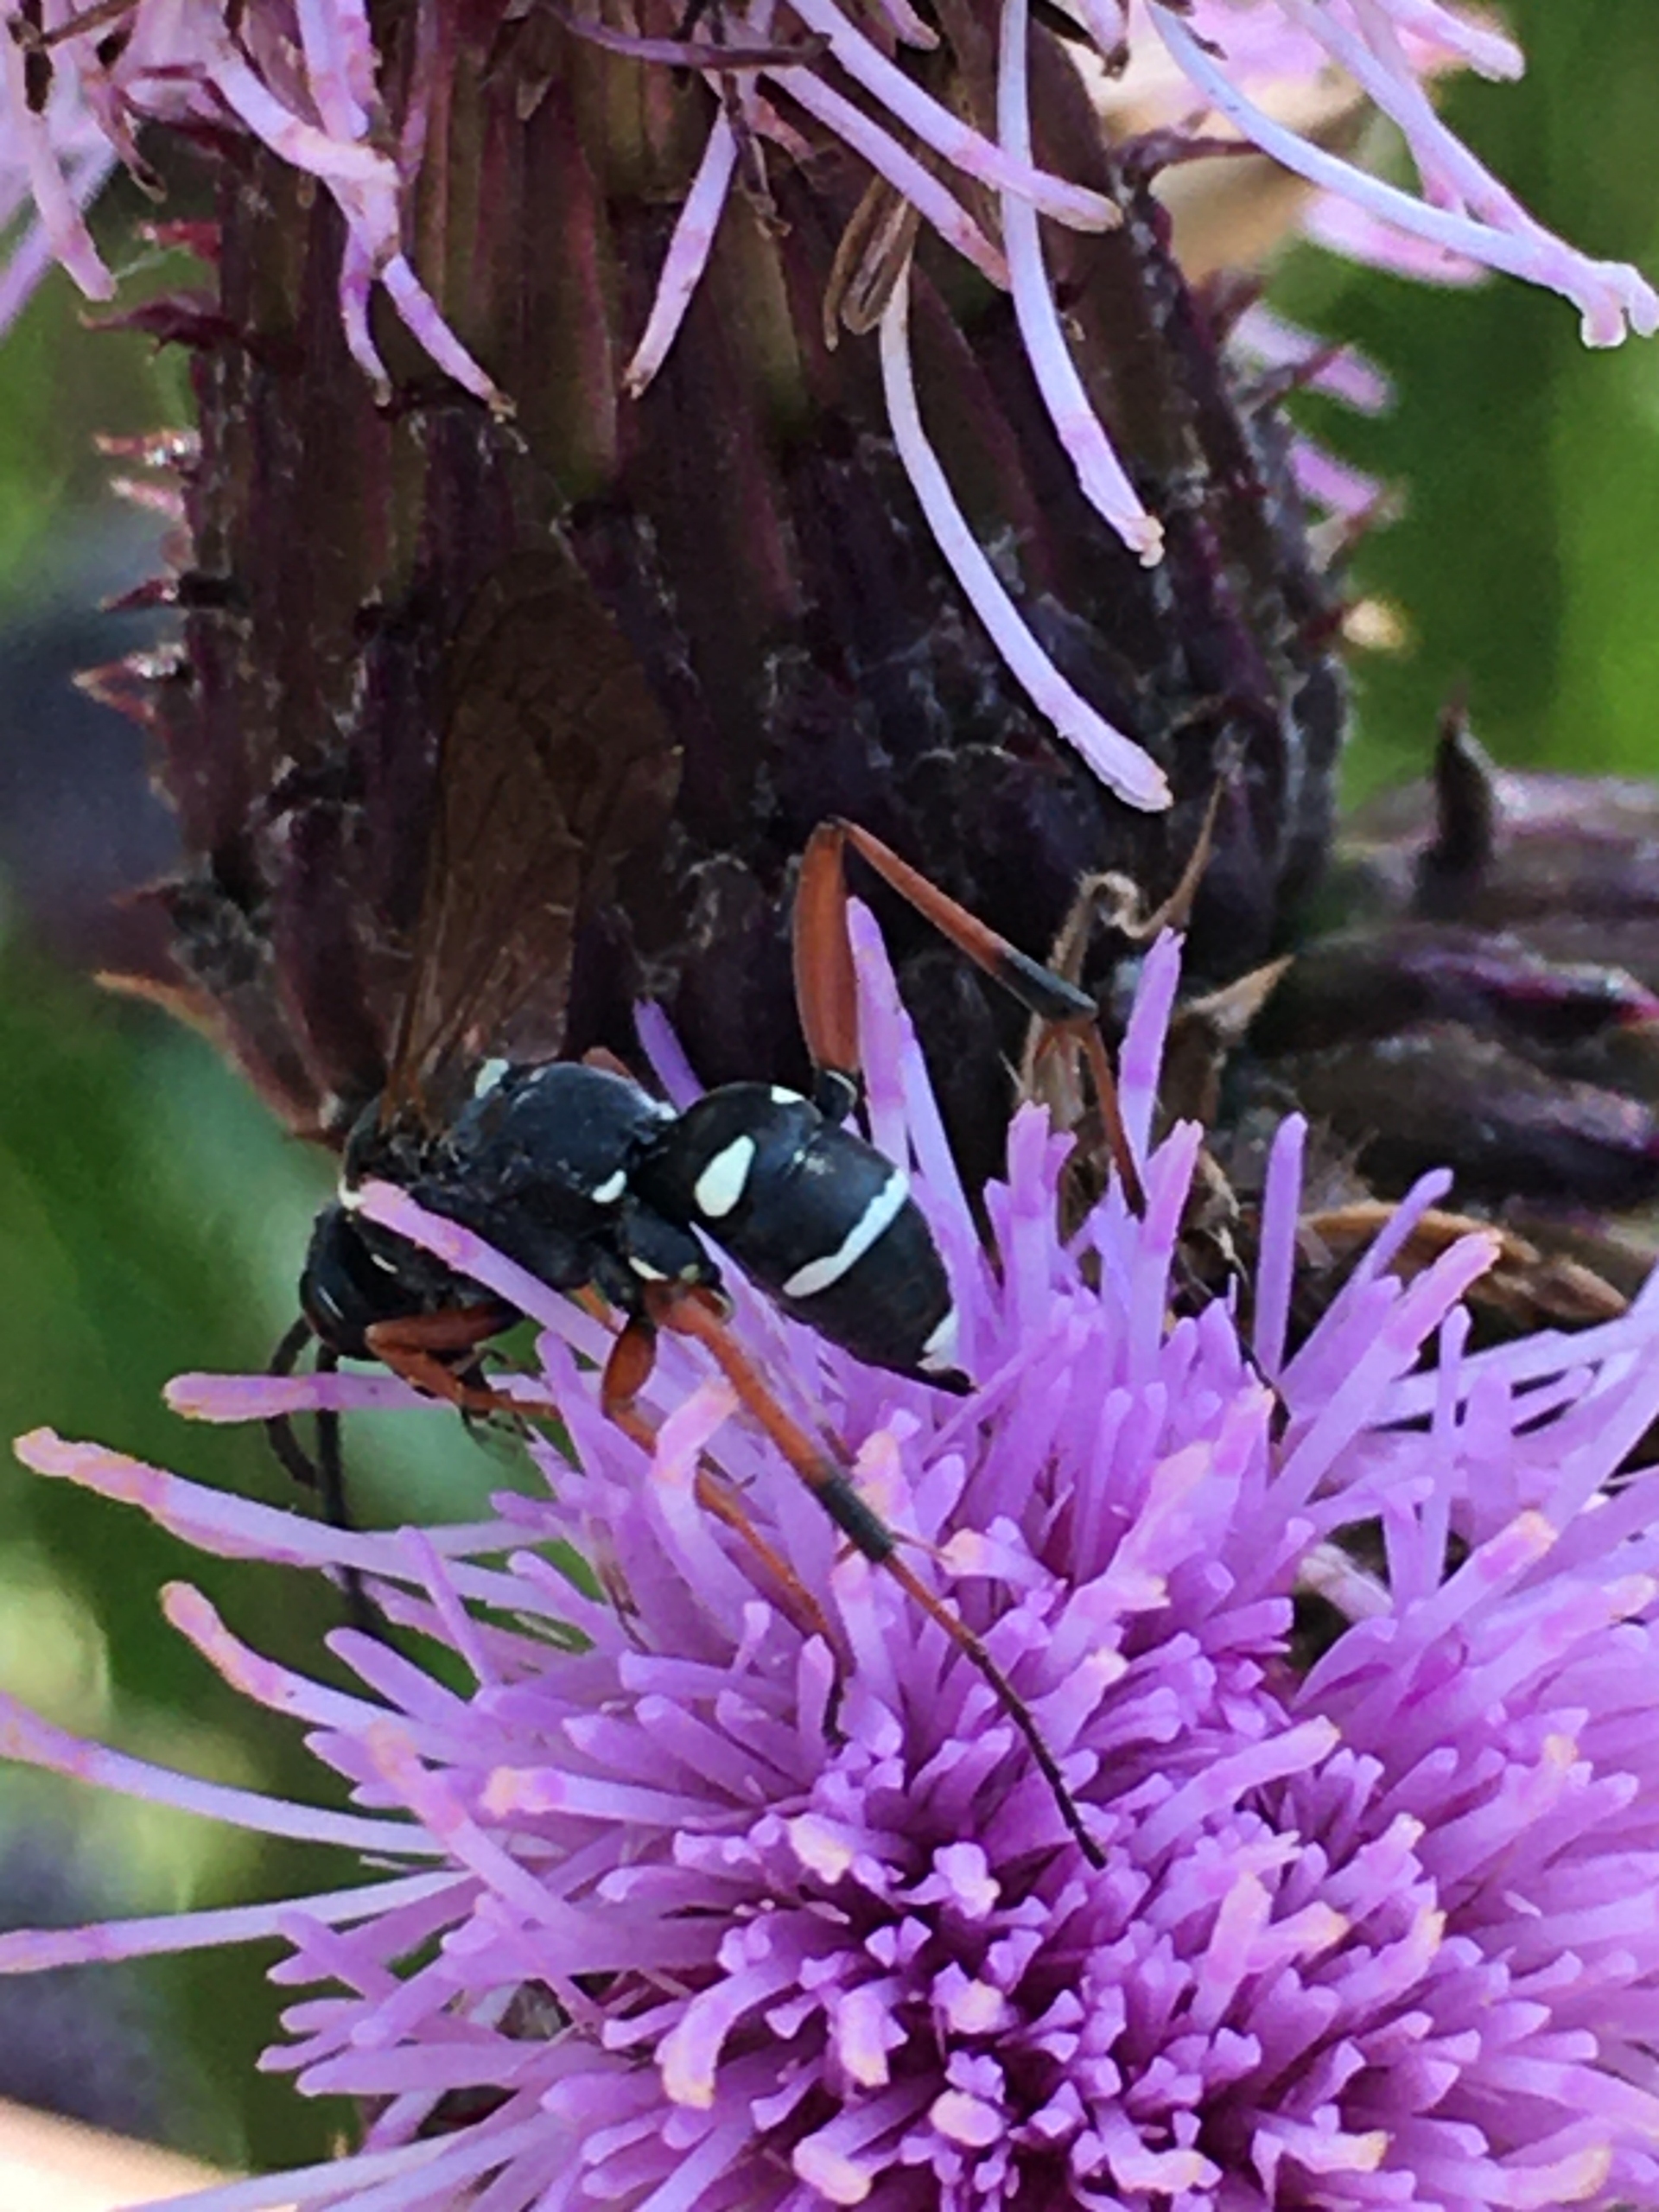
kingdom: Animalia
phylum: Arthropoda
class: Insecta
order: Hymenoptera
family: Pompilidae
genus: Ceropales
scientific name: Ceropales maculata
